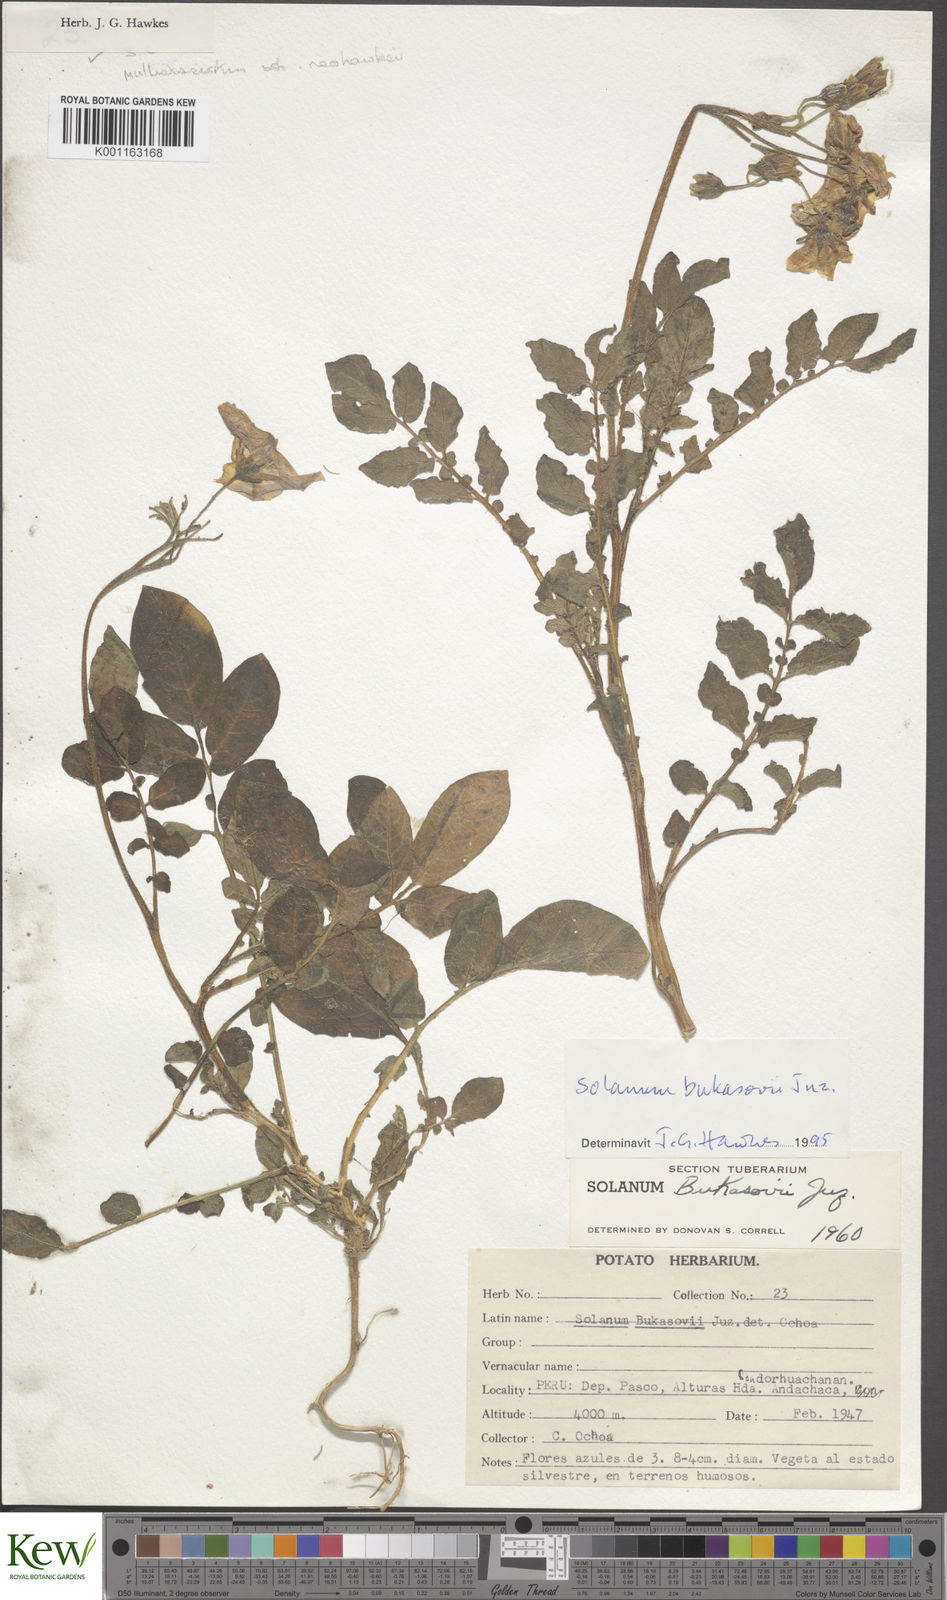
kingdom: Plantae
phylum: Tracheophyta
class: Magnoliopsida
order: Solanales
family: Solanaceae
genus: Solanum
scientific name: Solanum candolleanum
